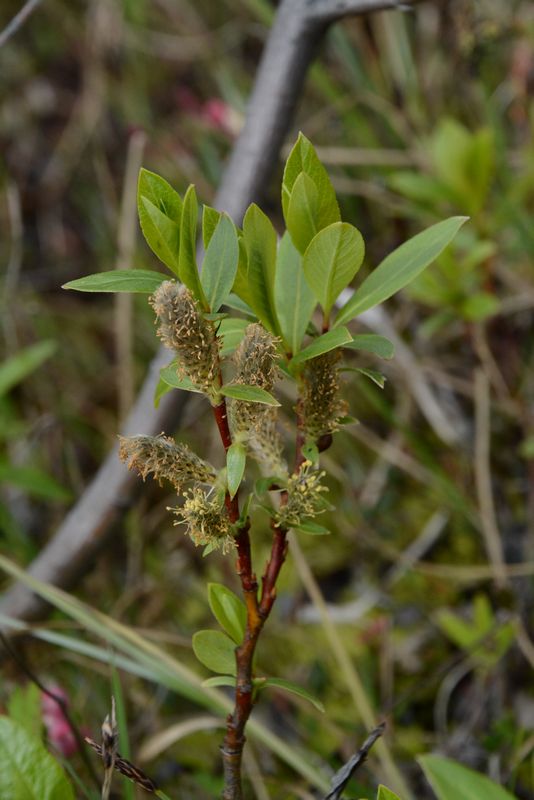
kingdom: Plantae
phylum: Tracheophyta
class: Magnoliopsida
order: Malpighiales
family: Salicaceae
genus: Salix
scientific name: Salix hastata
